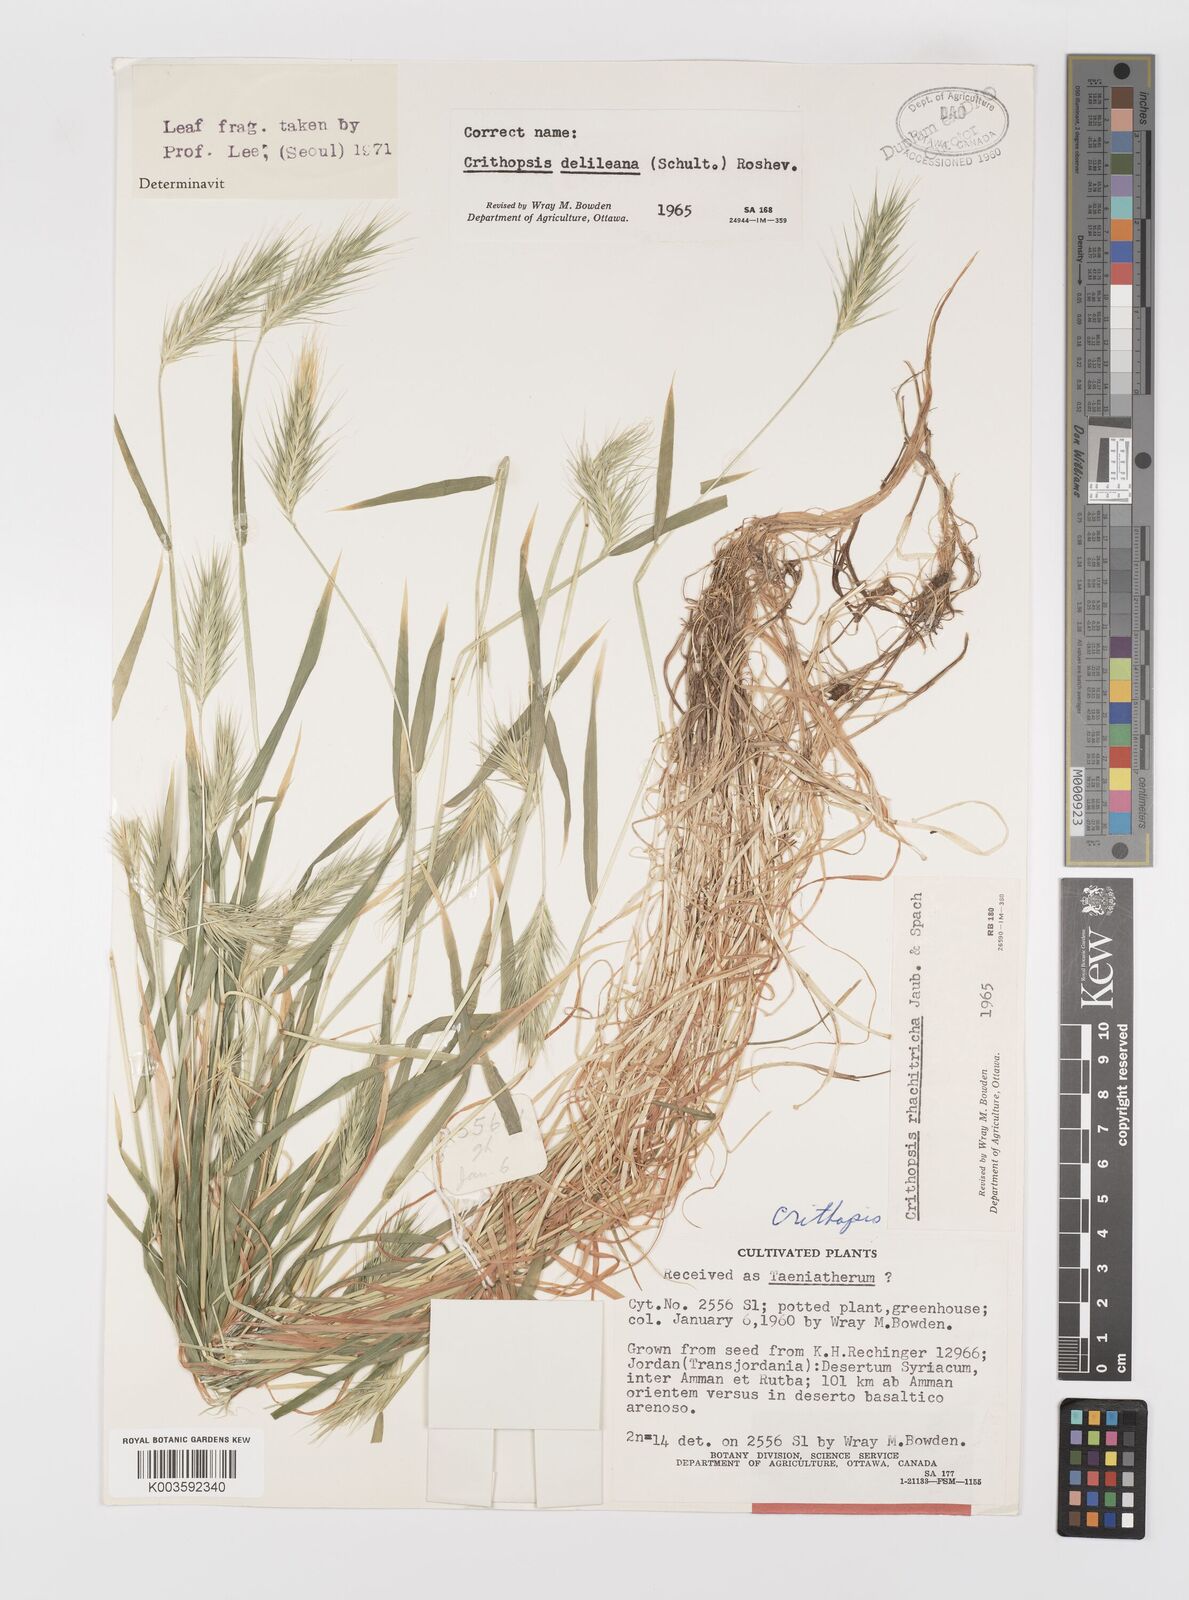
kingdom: Plantae
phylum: Tracheophyta
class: Liliopsida
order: Poales
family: Poaceae
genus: Crithopsis
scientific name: Crithopsis delileana
